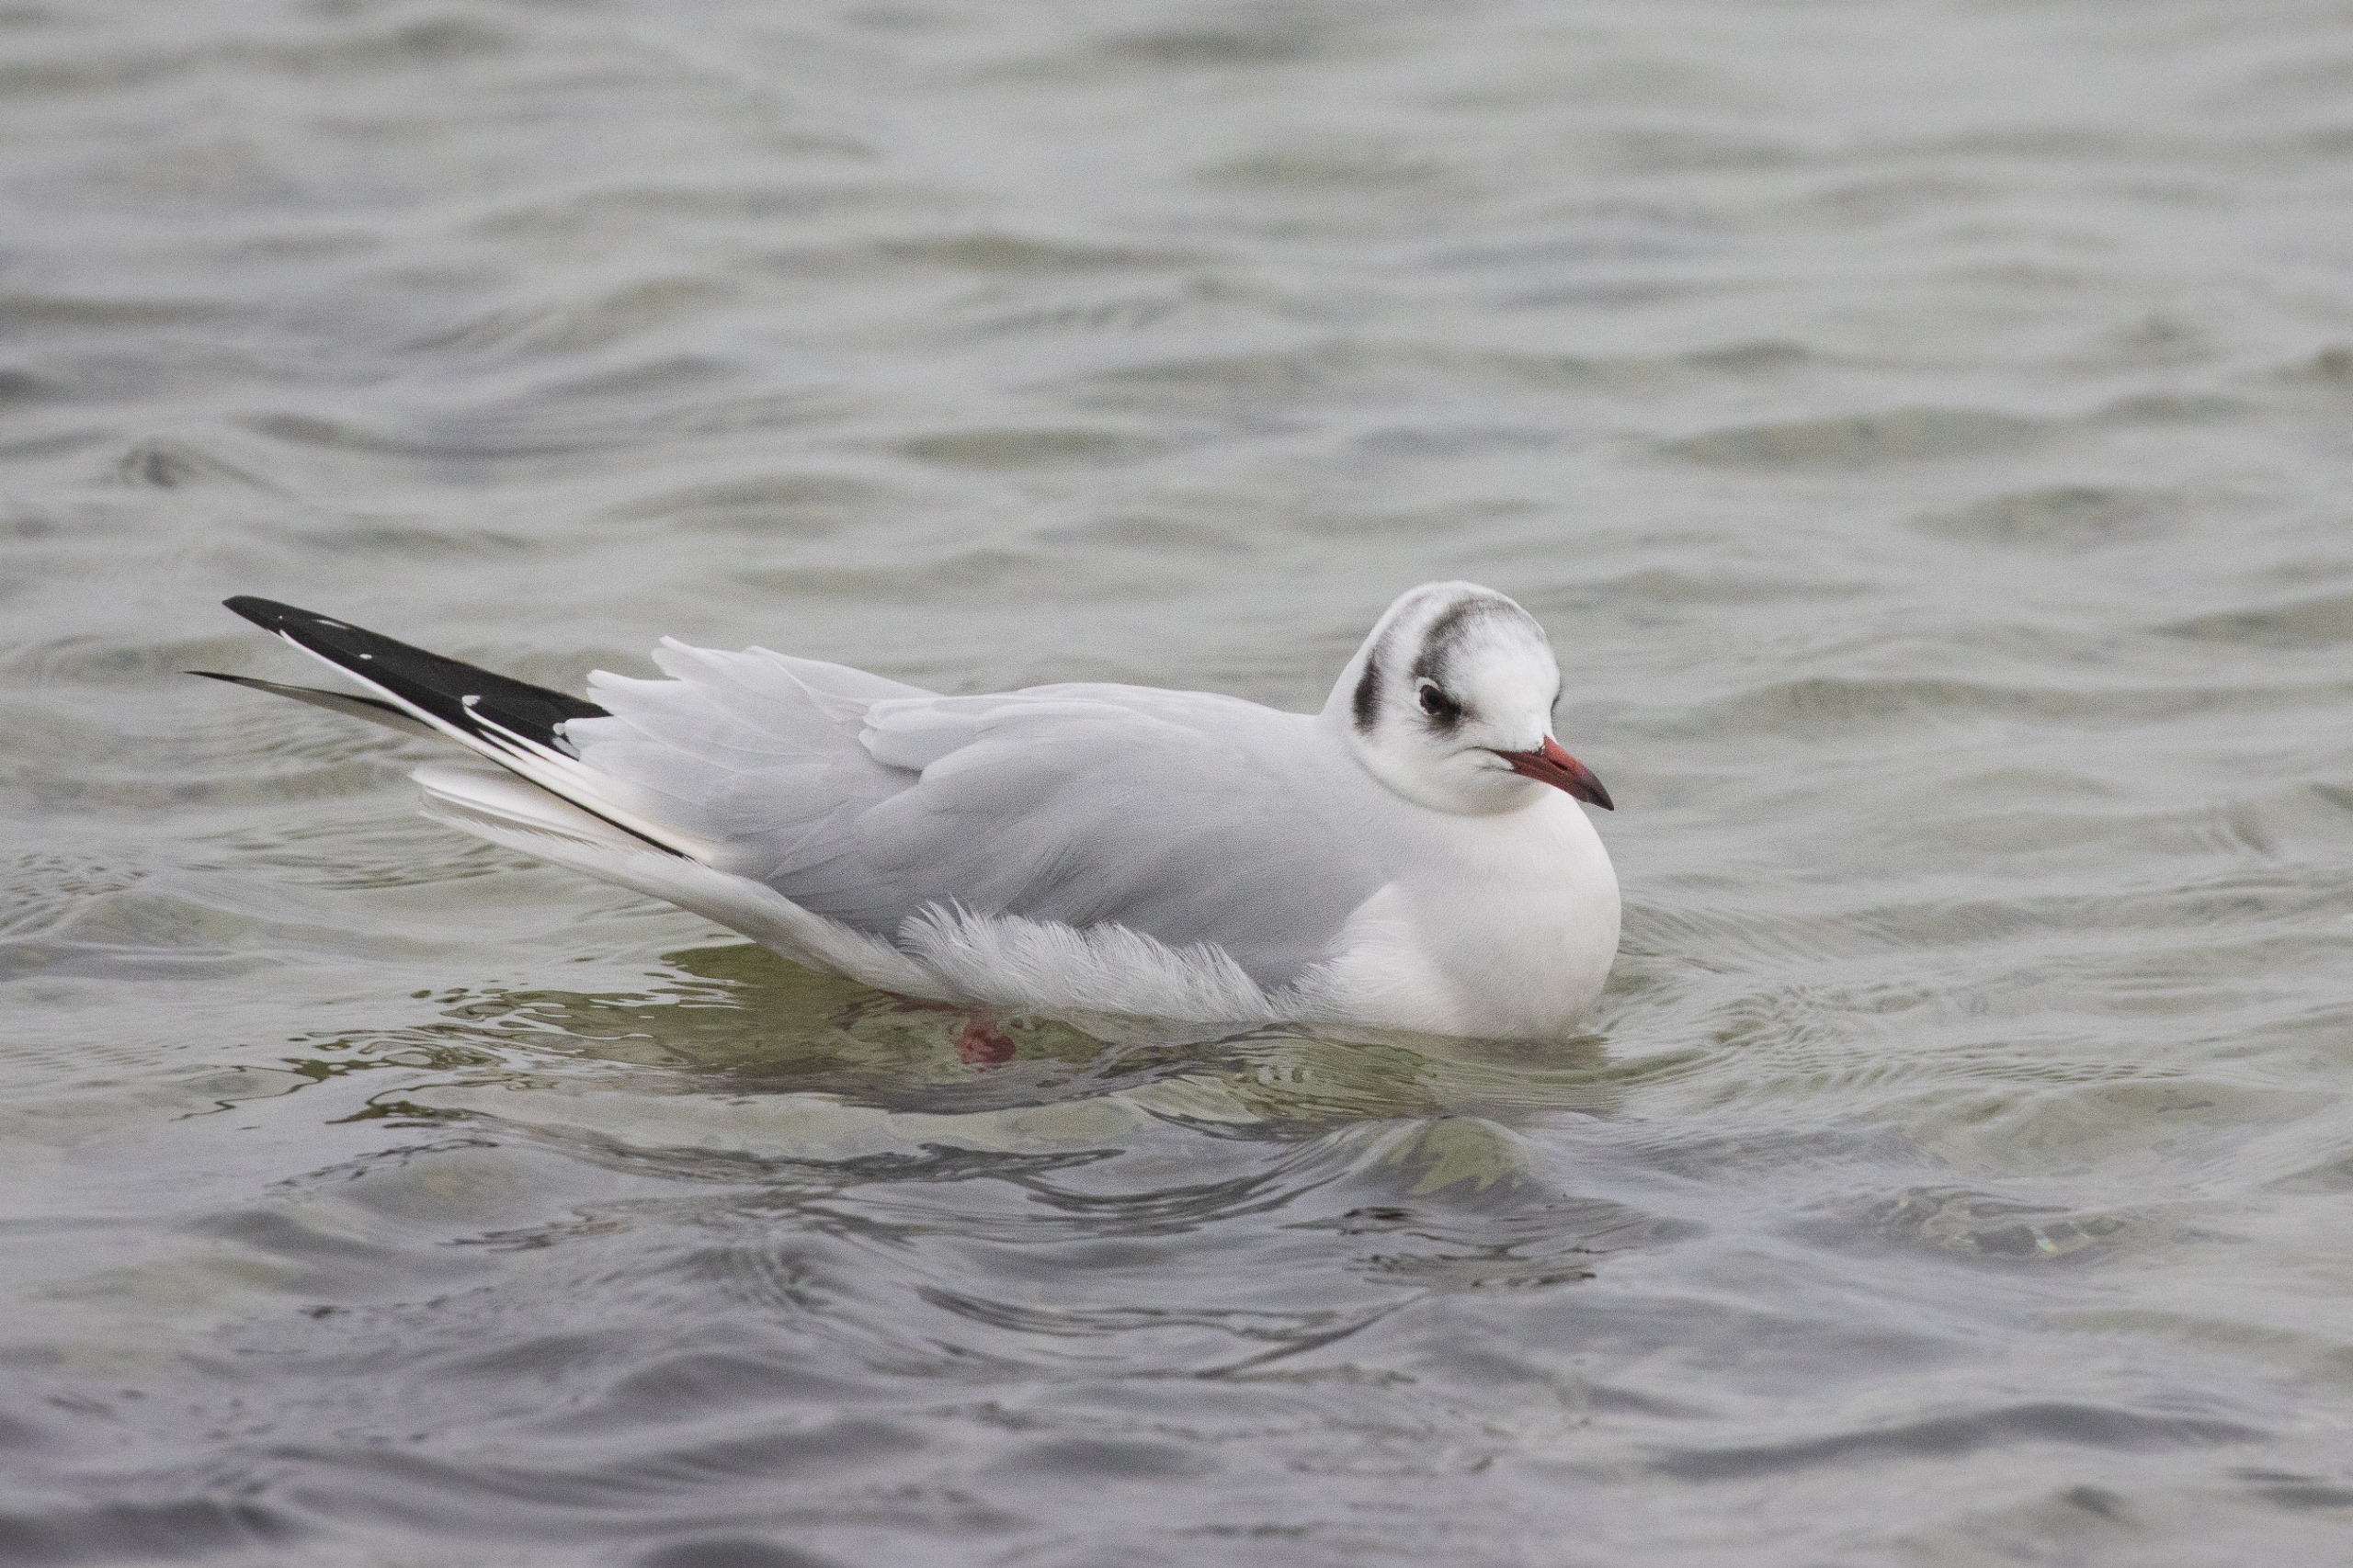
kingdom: Animalia
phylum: Chordata
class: Aves
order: Charadriiformes
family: Laridae
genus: Chroicocephalus
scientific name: Chroicocephalus ridibundus
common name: Hættemåge
